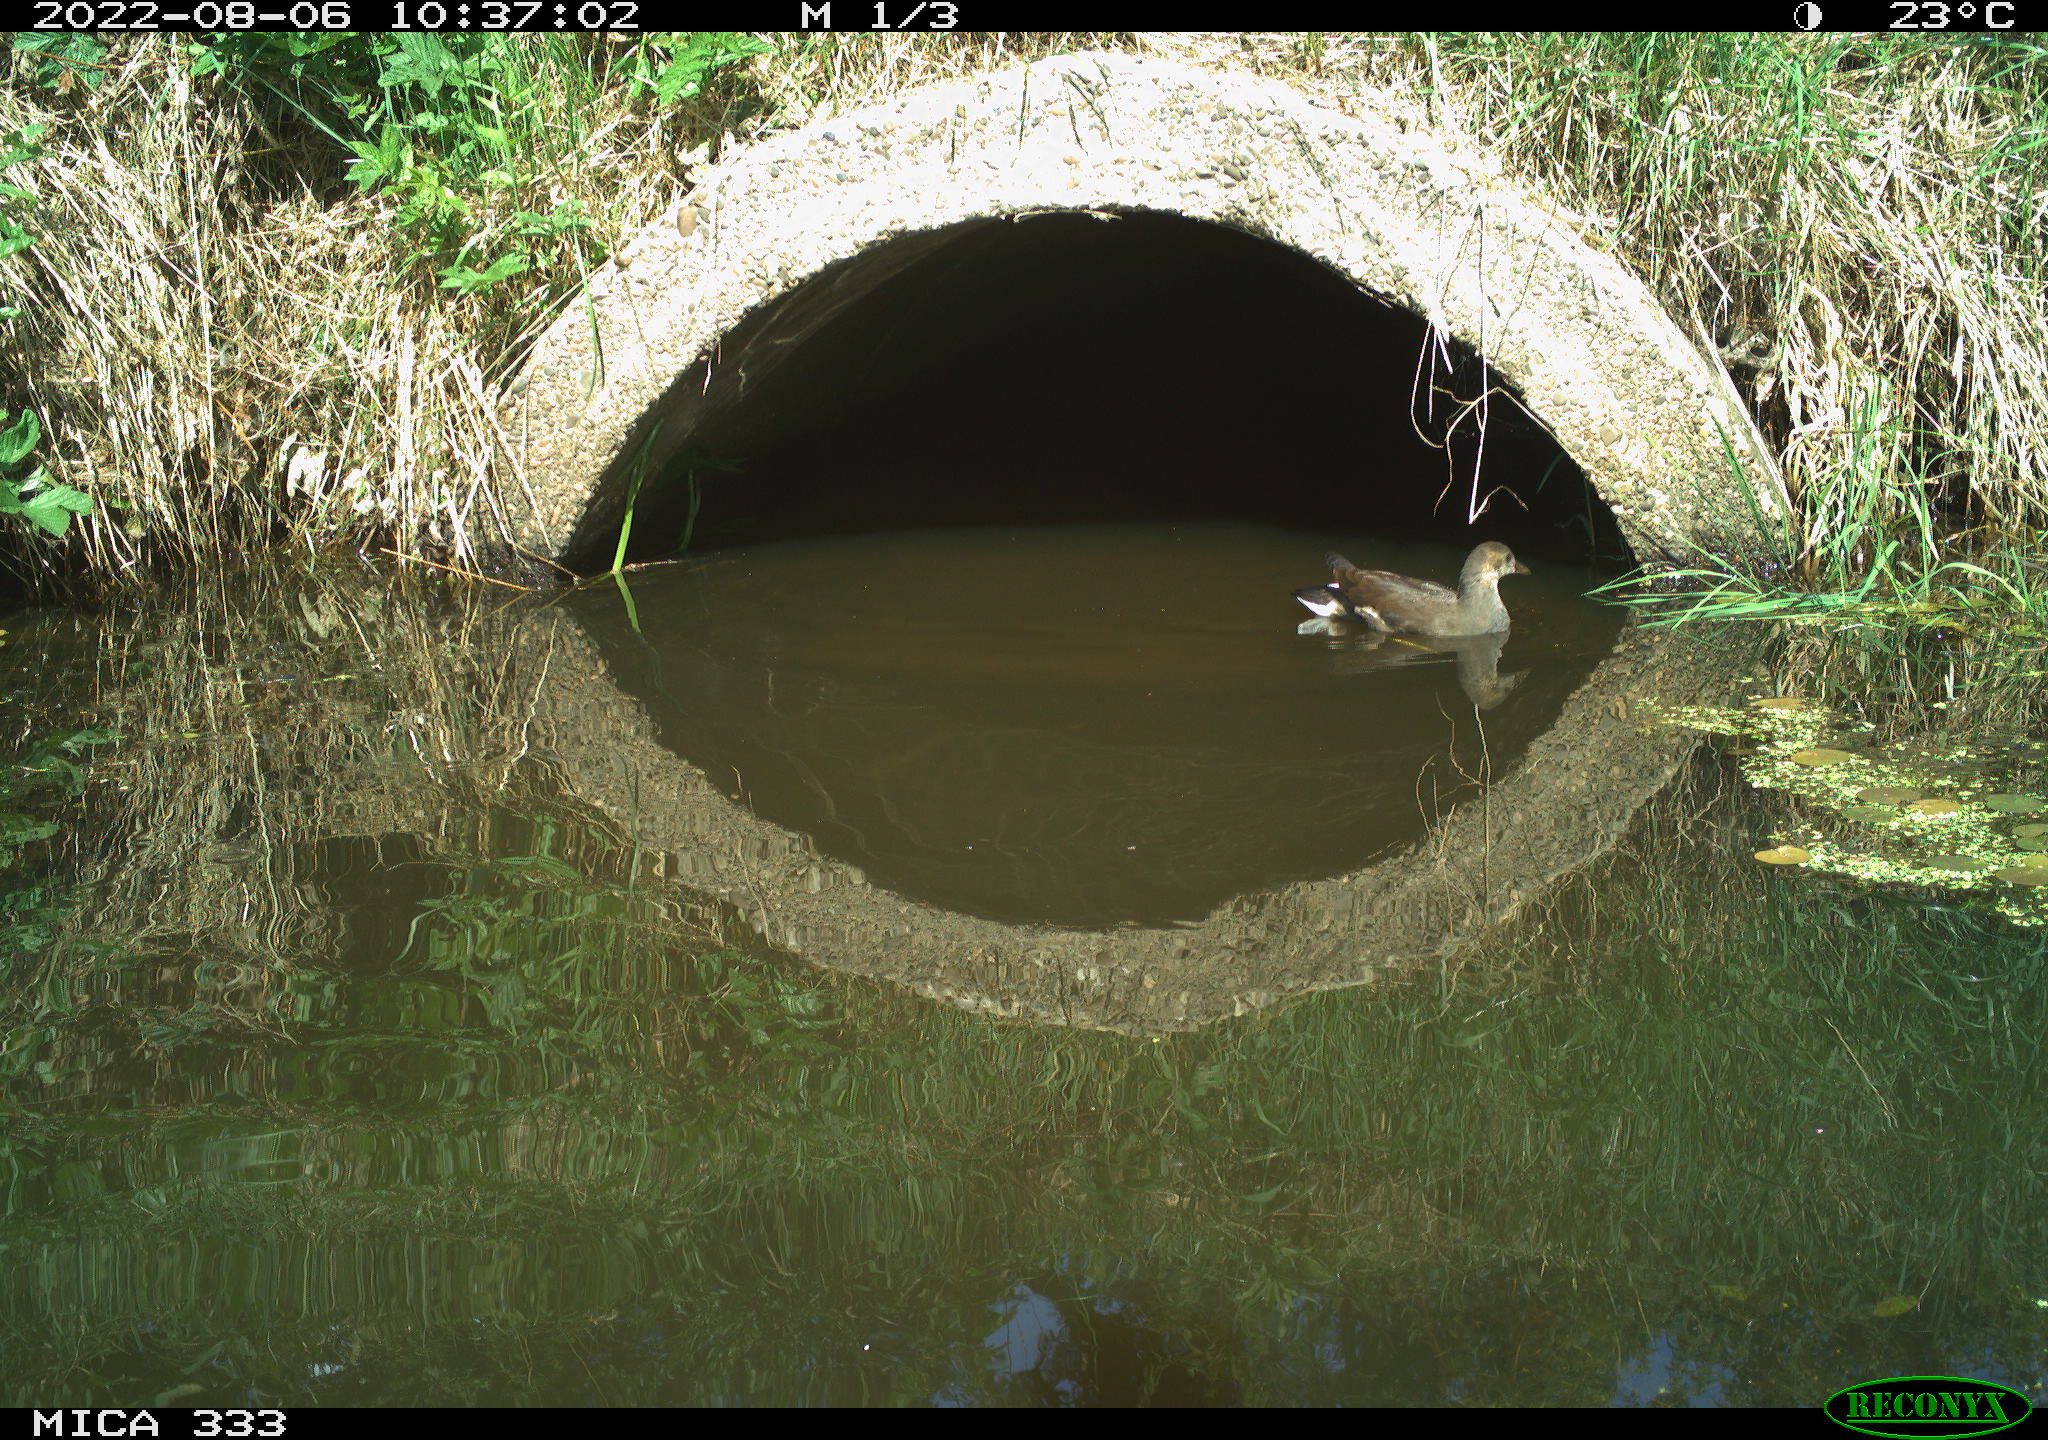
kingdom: Animalia
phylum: Chordata
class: Aves
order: Gruiformes
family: Rallidae
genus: Gallinula
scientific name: Gallinula chloropus
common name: Common moorhen
